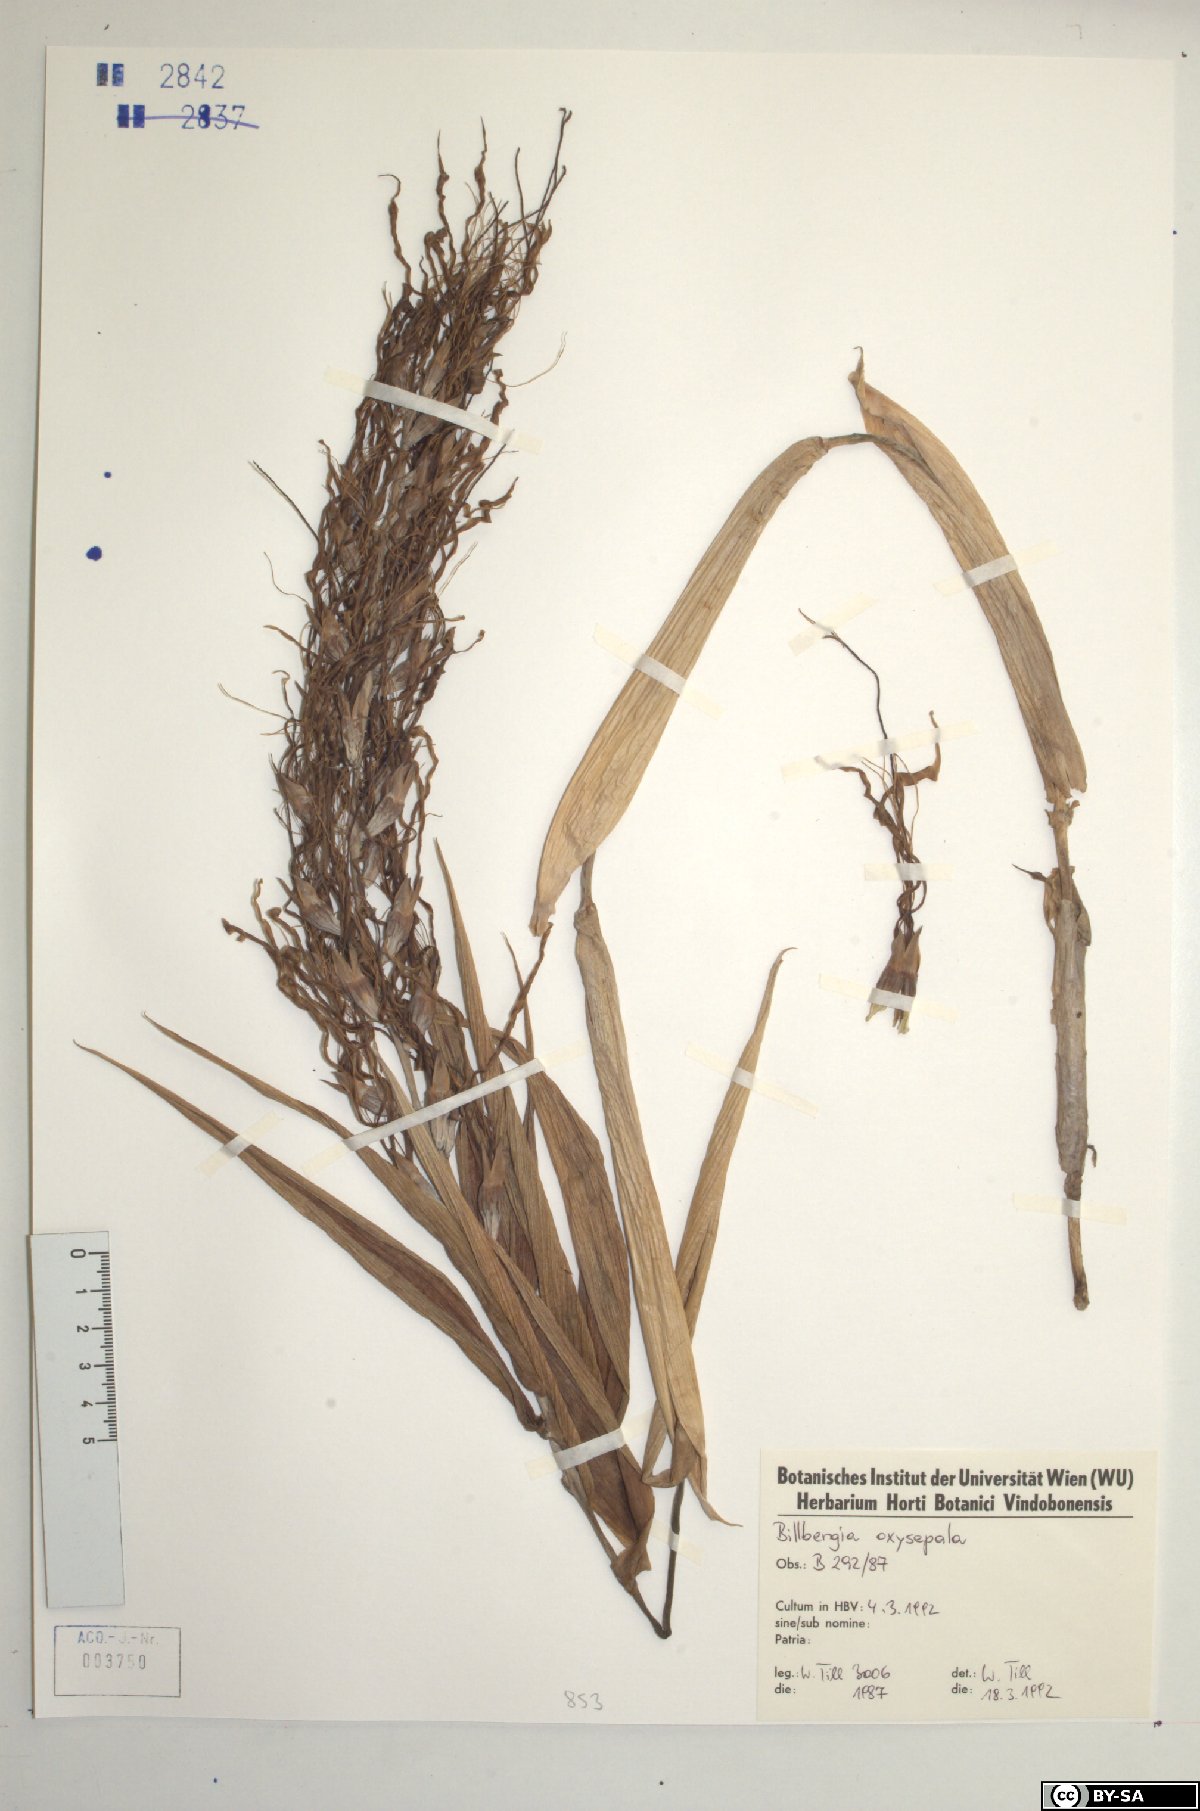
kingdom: Plantae
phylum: Tracheophyta
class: Liliopsida
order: Poales
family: Bromeliaceae
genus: Billbergia
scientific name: Billbergia oxysepala
